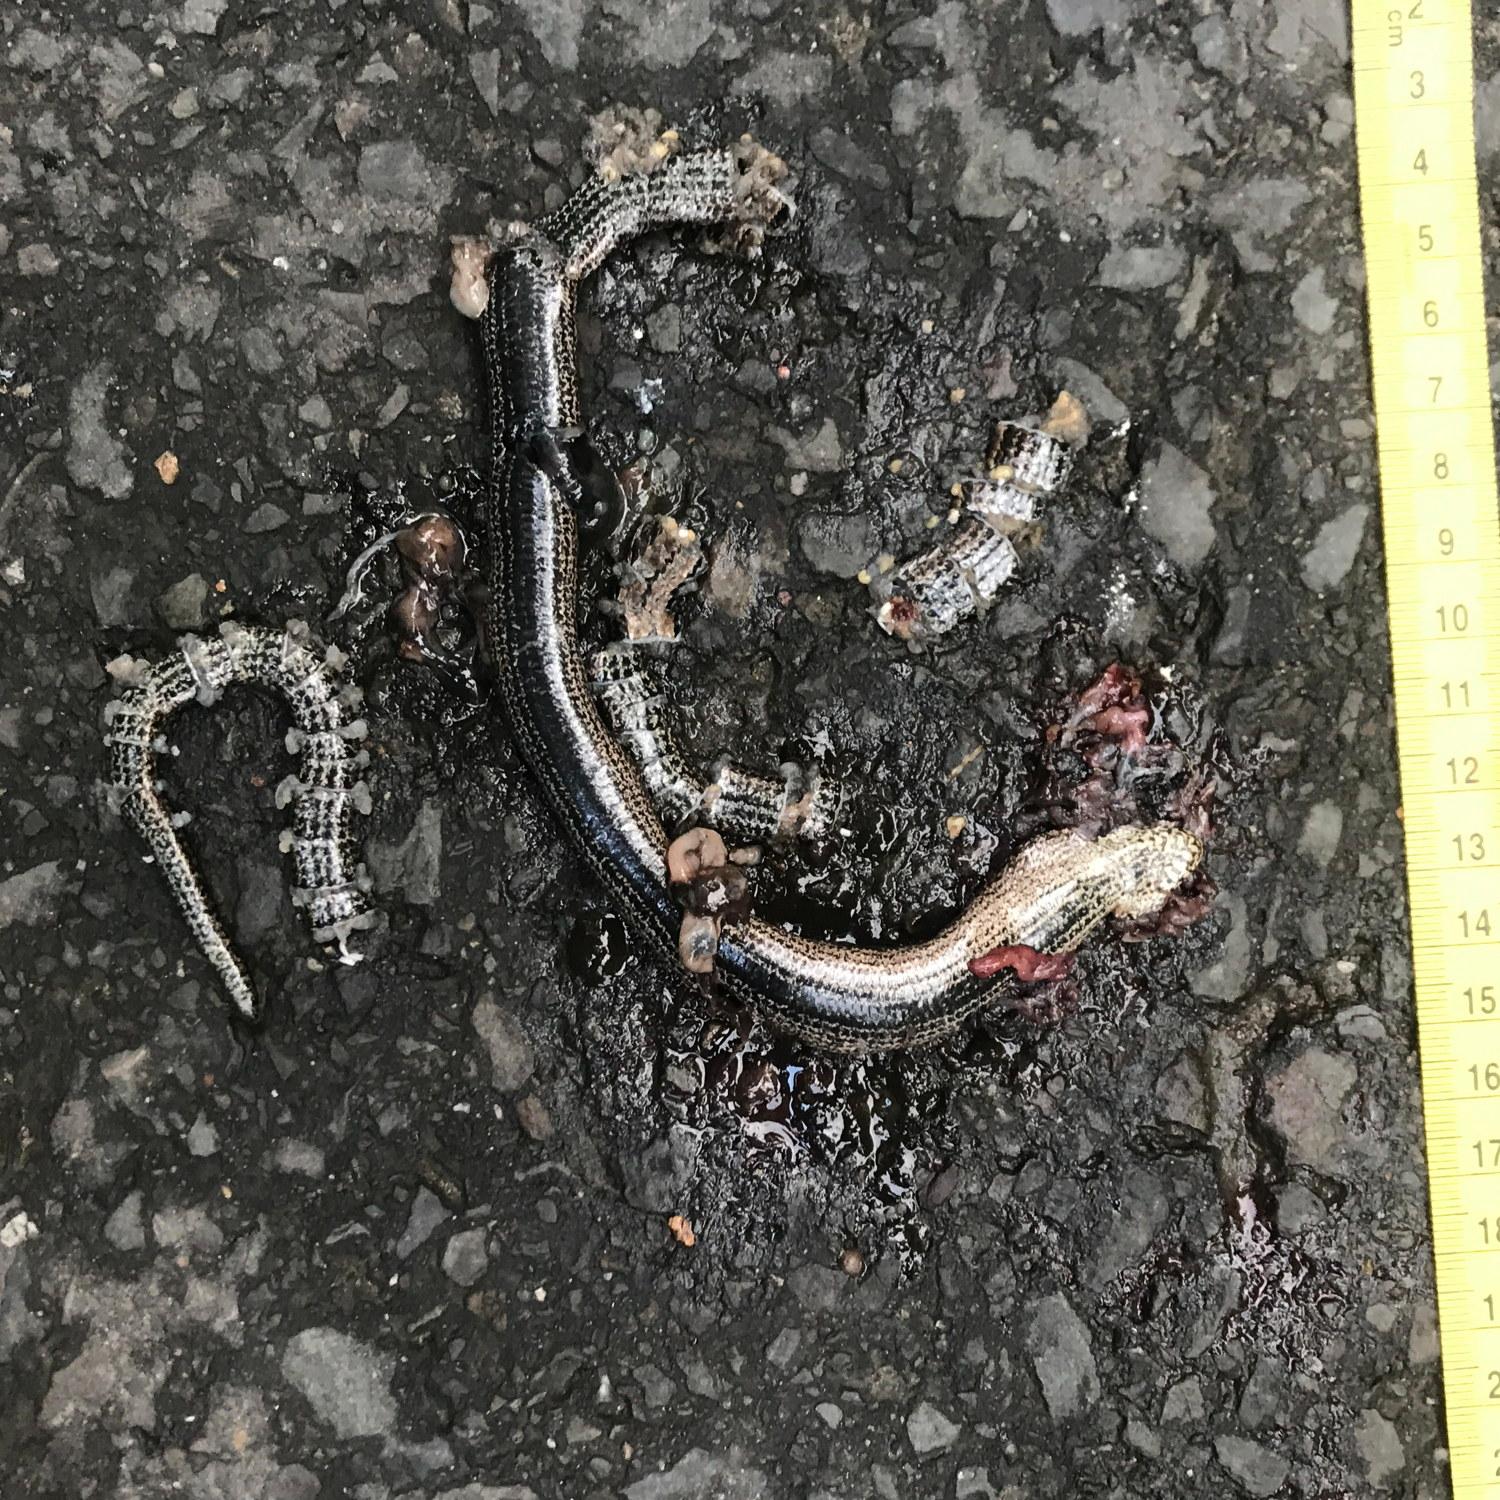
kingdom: Animalia
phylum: Chordata
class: Squamata
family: Anguidae
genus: Anguis
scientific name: Anguis fragilis
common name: Slow worm
